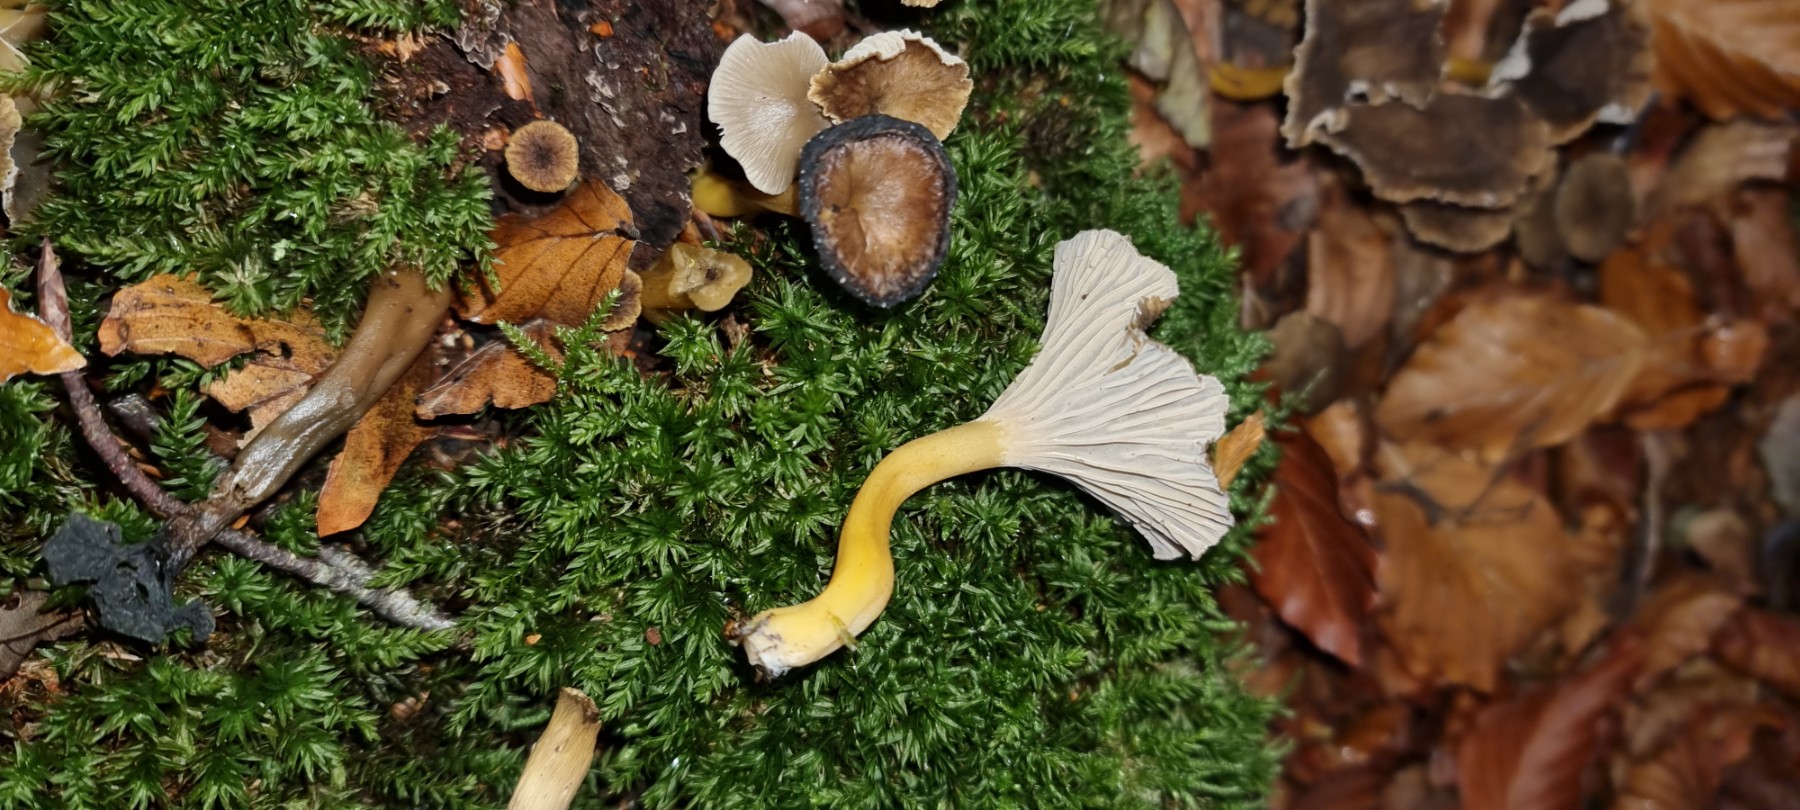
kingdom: Fungi
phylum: Basidiomycota
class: Agaricomycetes
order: Cantharellales
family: Hydnaceae
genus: Craterellus
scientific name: Craterellus tubaeformis
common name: tragt-kantarel
